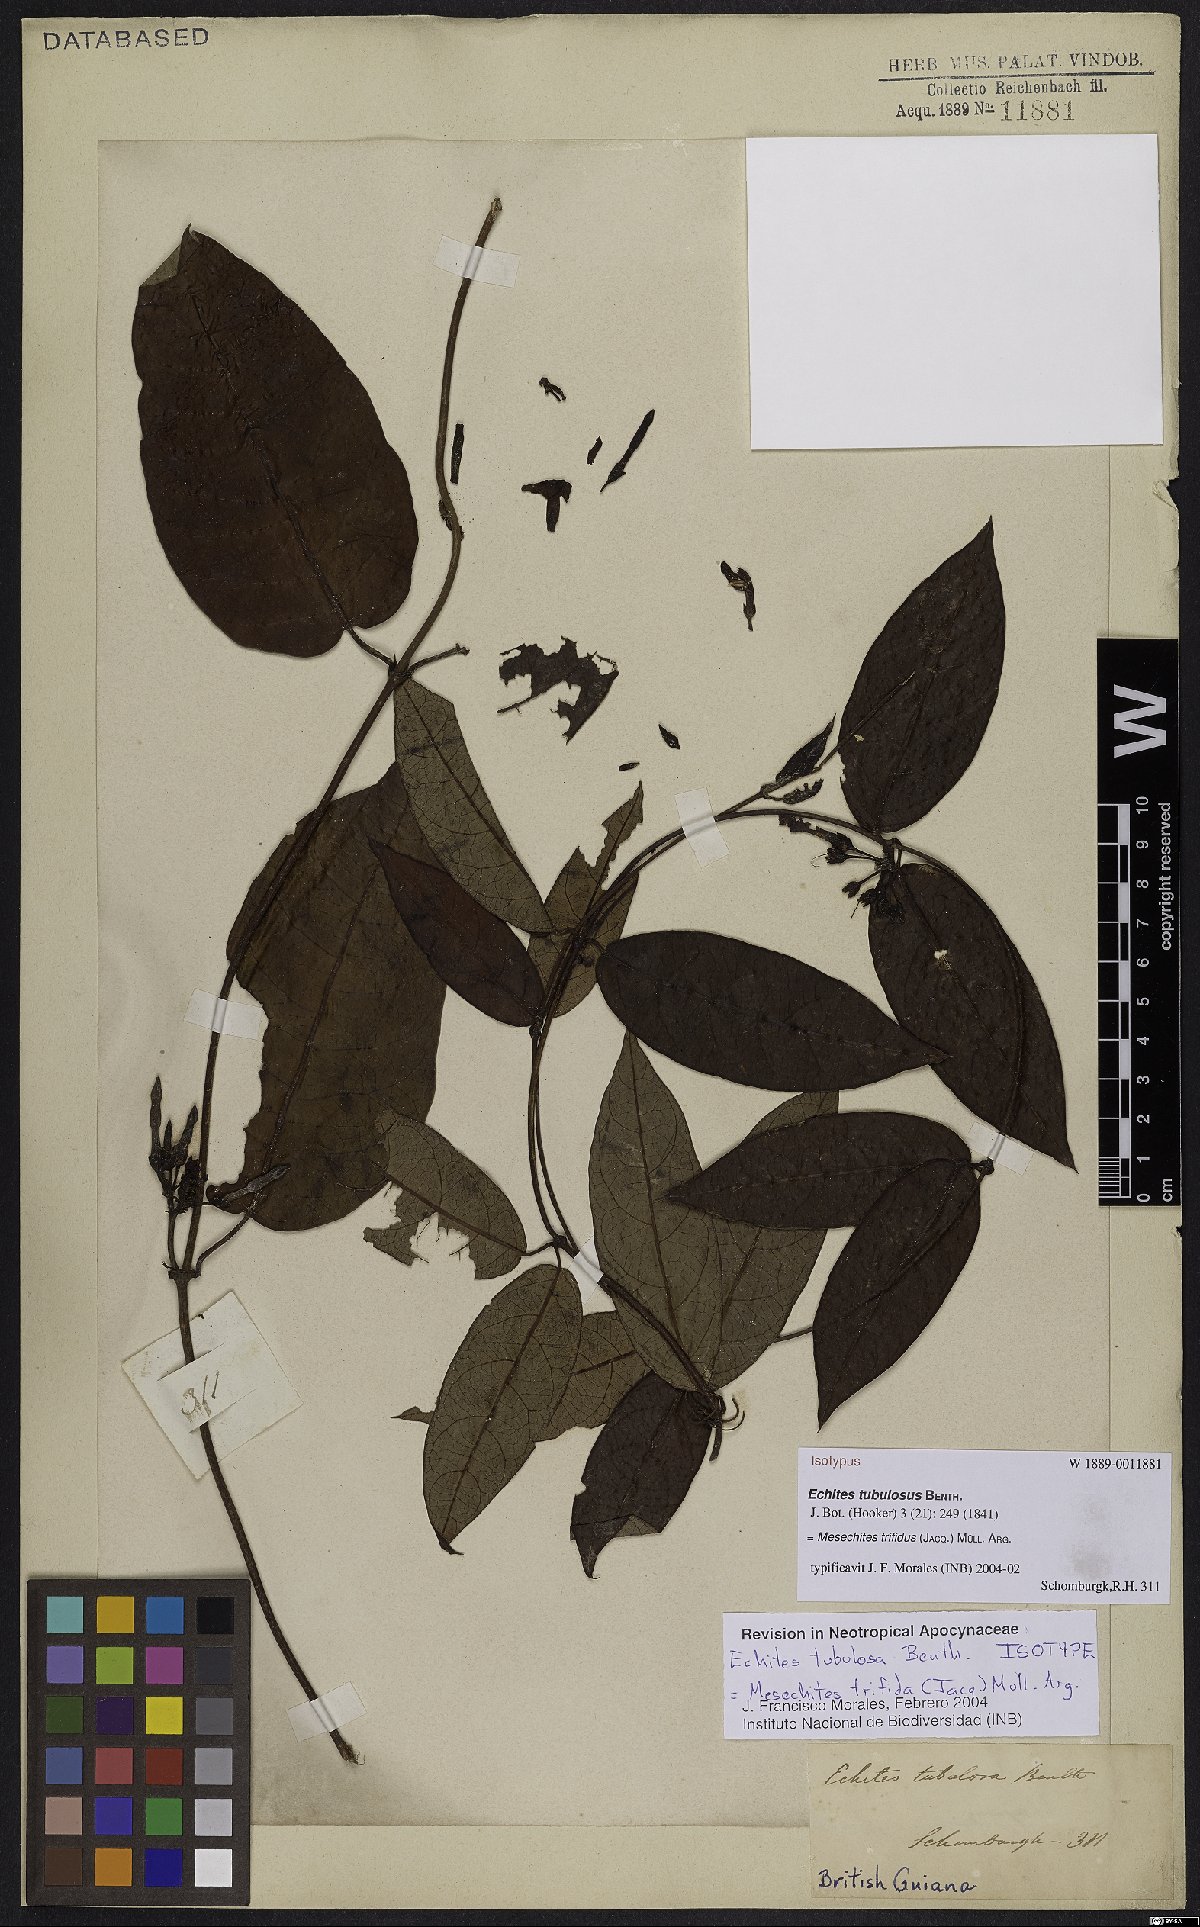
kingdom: Plantae
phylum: Tracheophyta
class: Magnoliopsida
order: Gentianales
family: Apocynaceae
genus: Mesechites
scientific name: Mesechites trifidus
